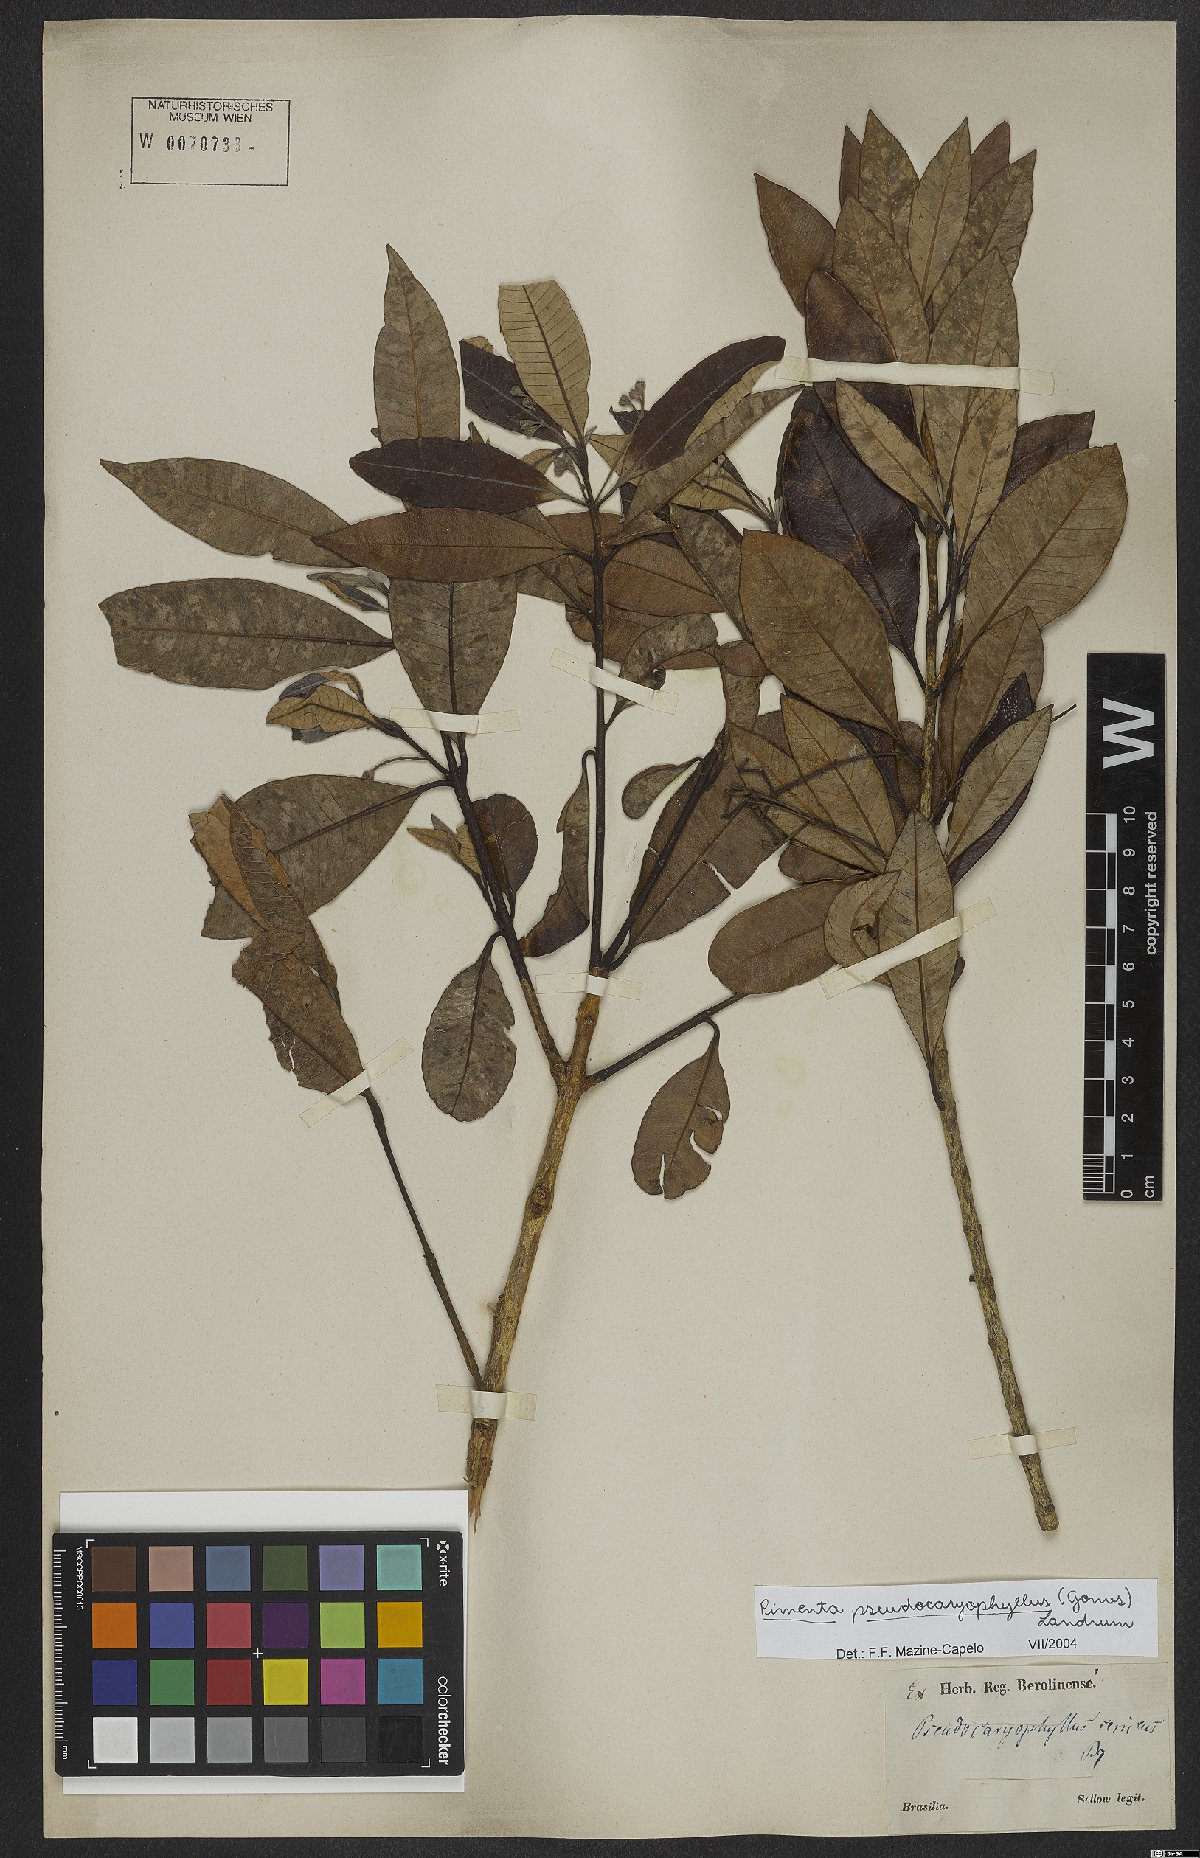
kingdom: Plantae
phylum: Tracheophyta
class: Magnoliopsida
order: Myrtales
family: Myrtaceae
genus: Pimenta
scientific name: Pimenta pseudocaryophyllus
